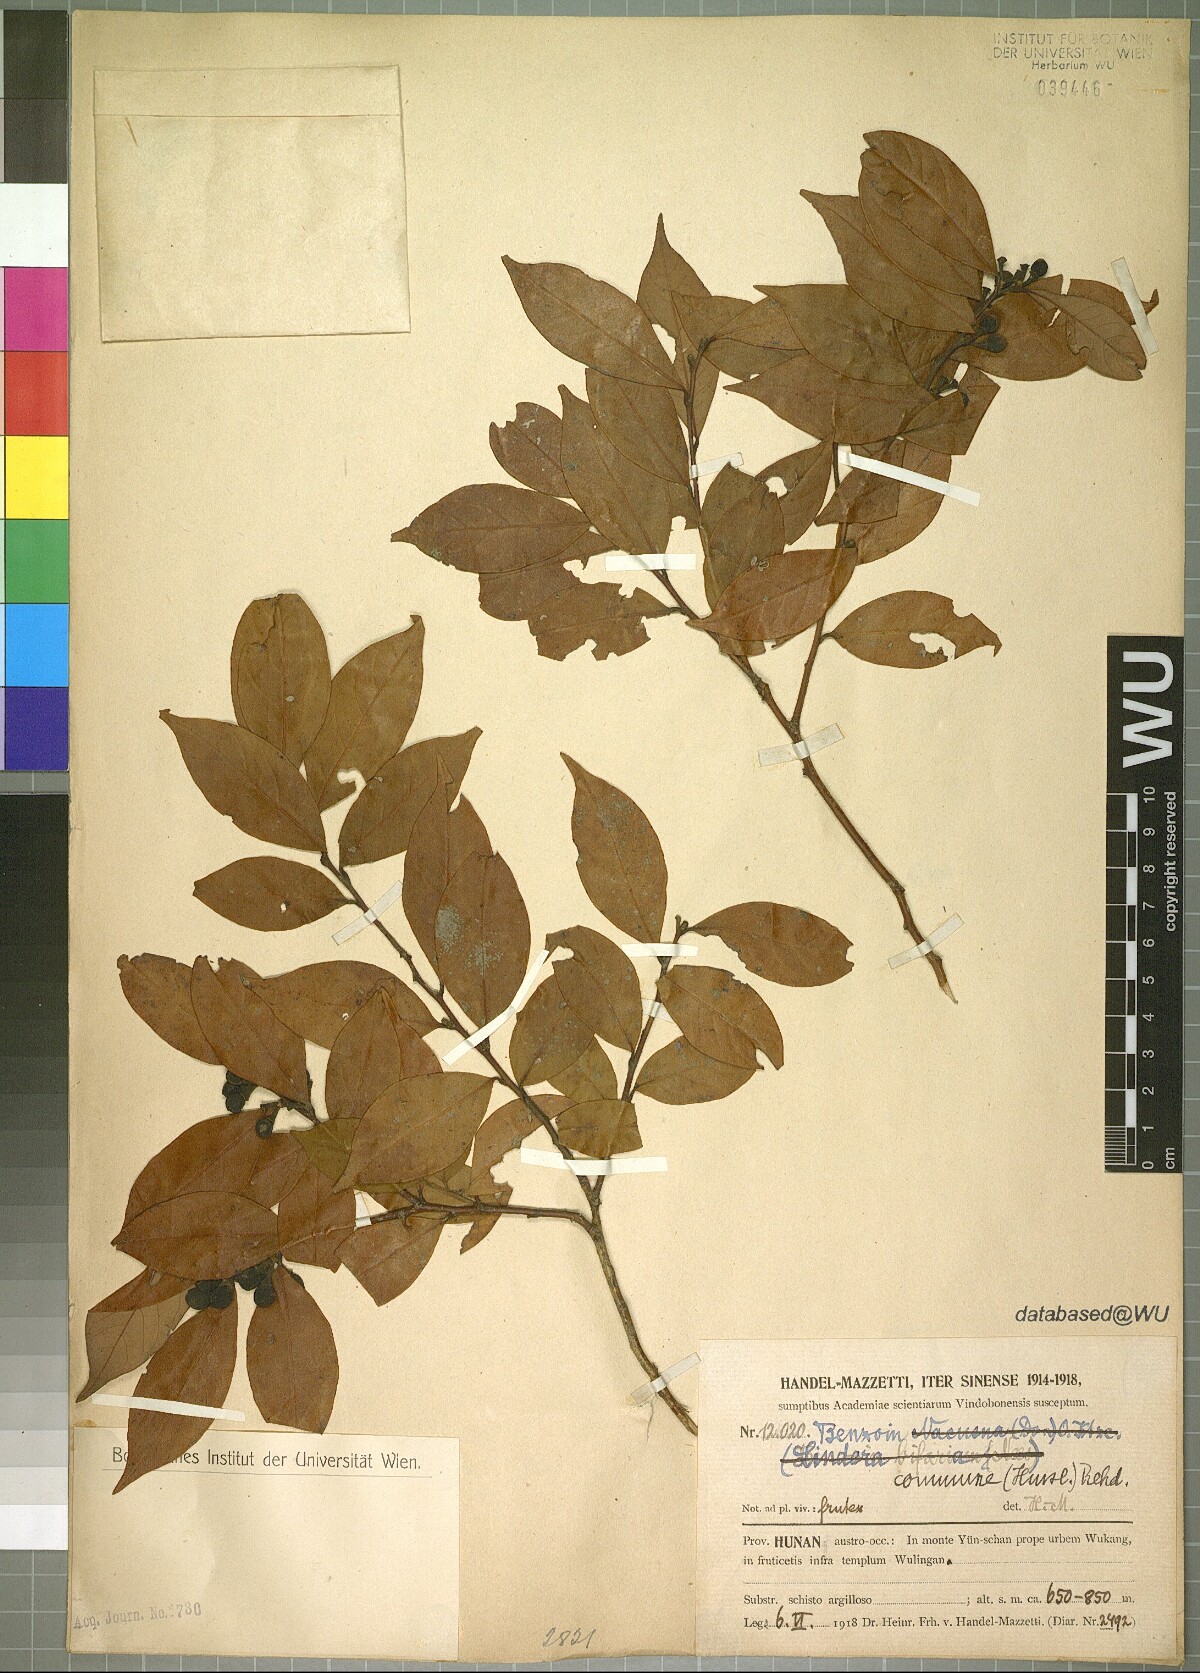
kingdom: Plantae
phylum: Tracheophyta
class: Magnoliopsida
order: Laurales
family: Lauraceae
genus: Lindera
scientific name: Lindera communis
